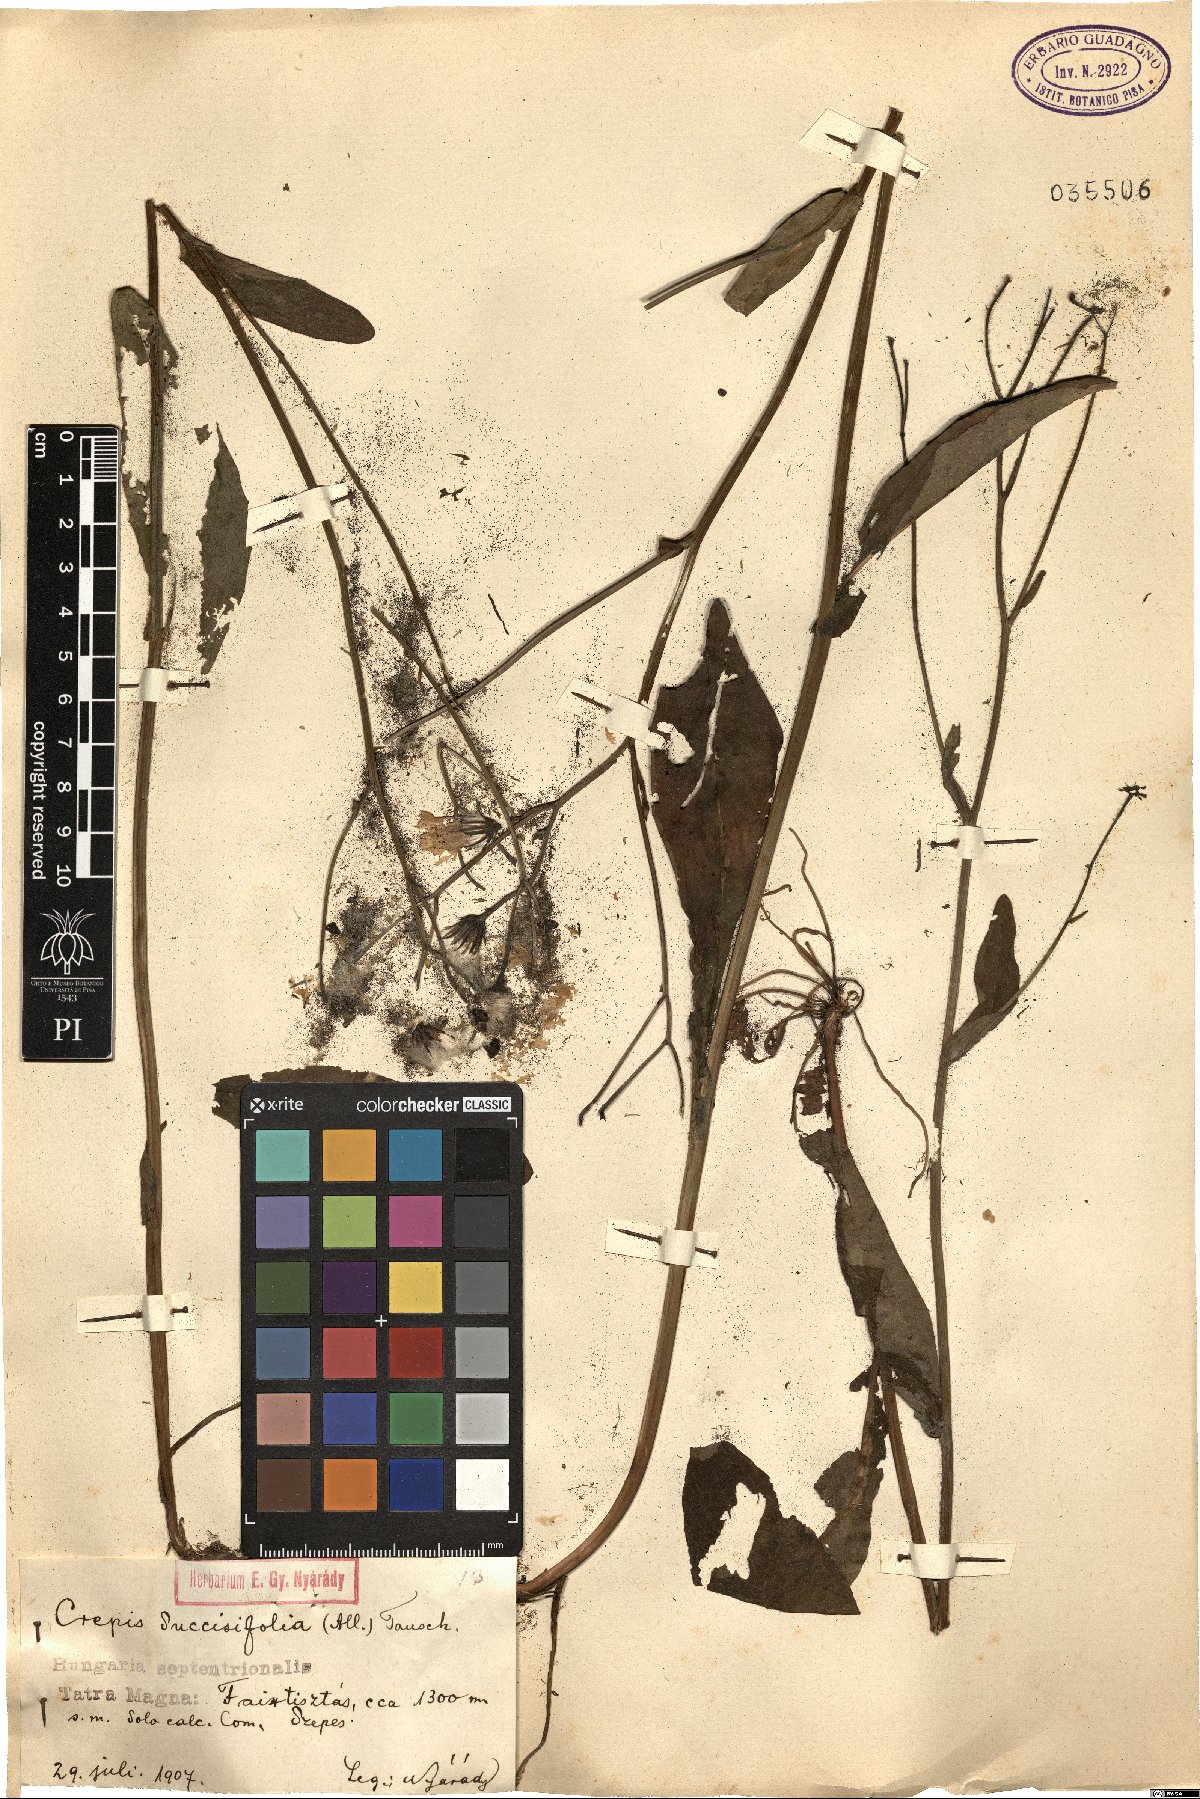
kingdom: Plantae
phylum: Tracheophyta
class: Magnoliopsida
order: Asterales
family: Asteraceae
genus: Crepis
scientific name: Crepis mollis
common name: Northern hawk's-beard
